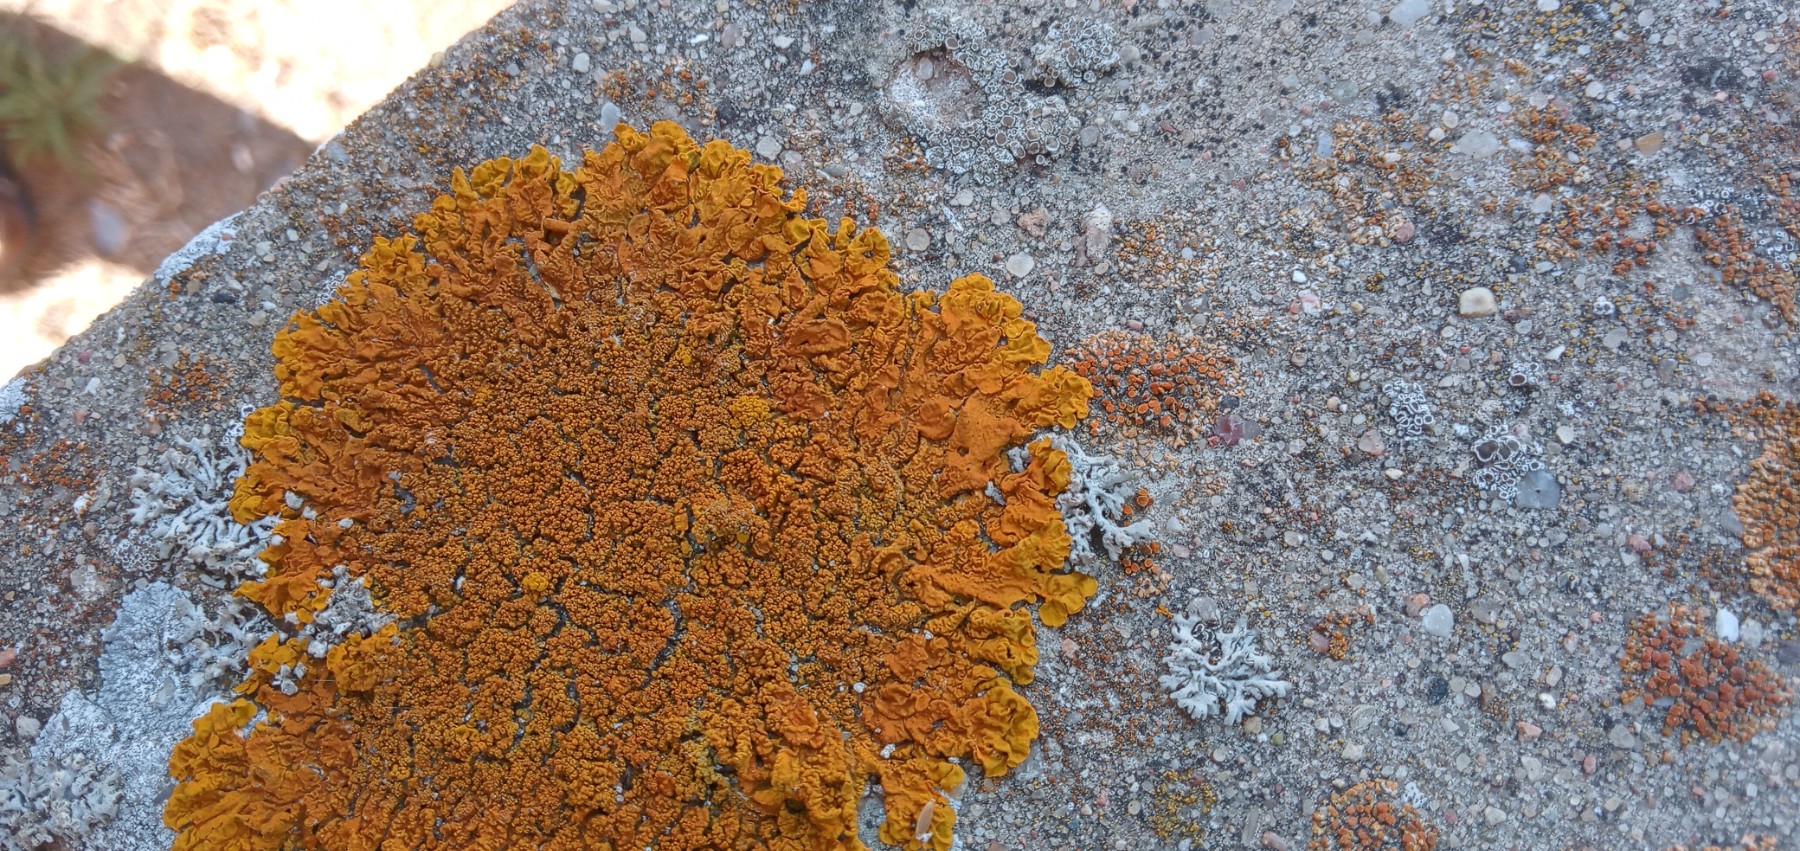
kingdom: Fungi
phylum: Ascomycota
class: Lecanoromycetes
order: Teloschistales
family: Teloschistaceae
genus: Xanthoria
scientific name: Xanthoria calcicola
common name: vortet væggelav
